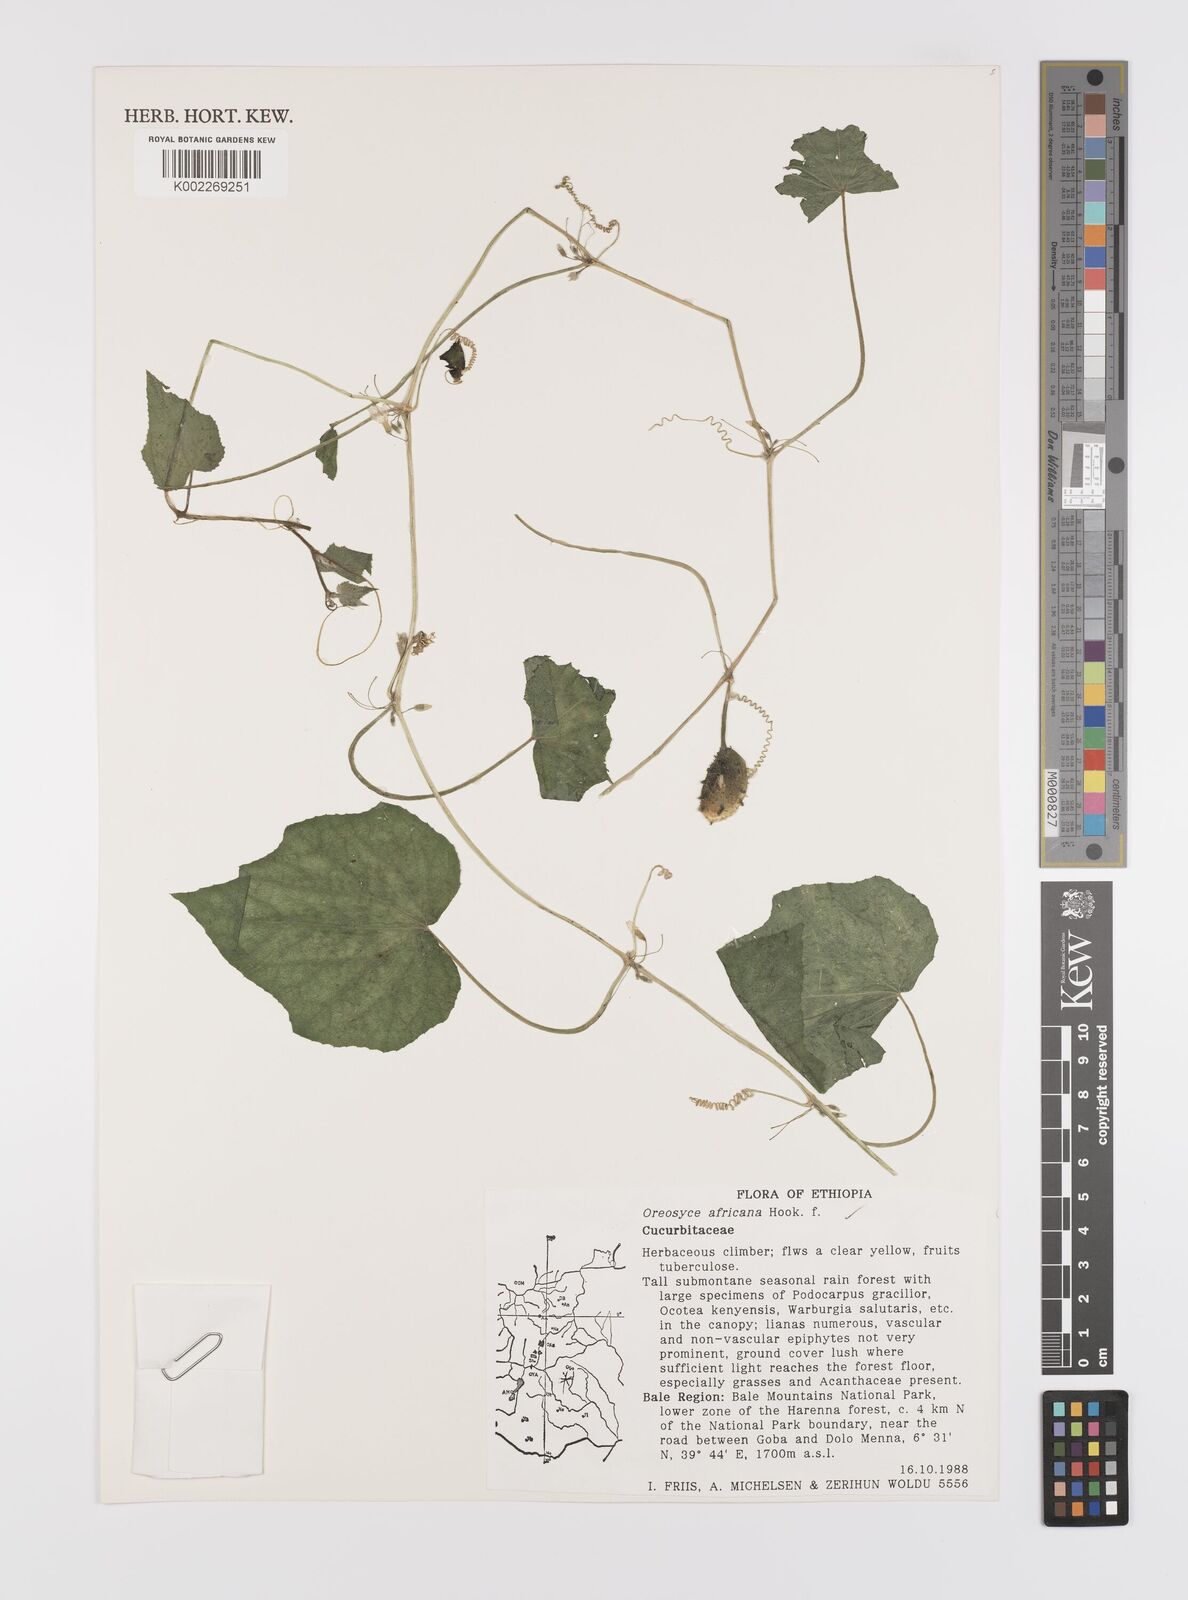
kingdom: Plantae
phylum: Tracheophyta
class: Magnoliopsida
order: Cucurbitales
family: Cucurbitaceae
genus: Cucumis
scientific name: Cucumis oreosyce
